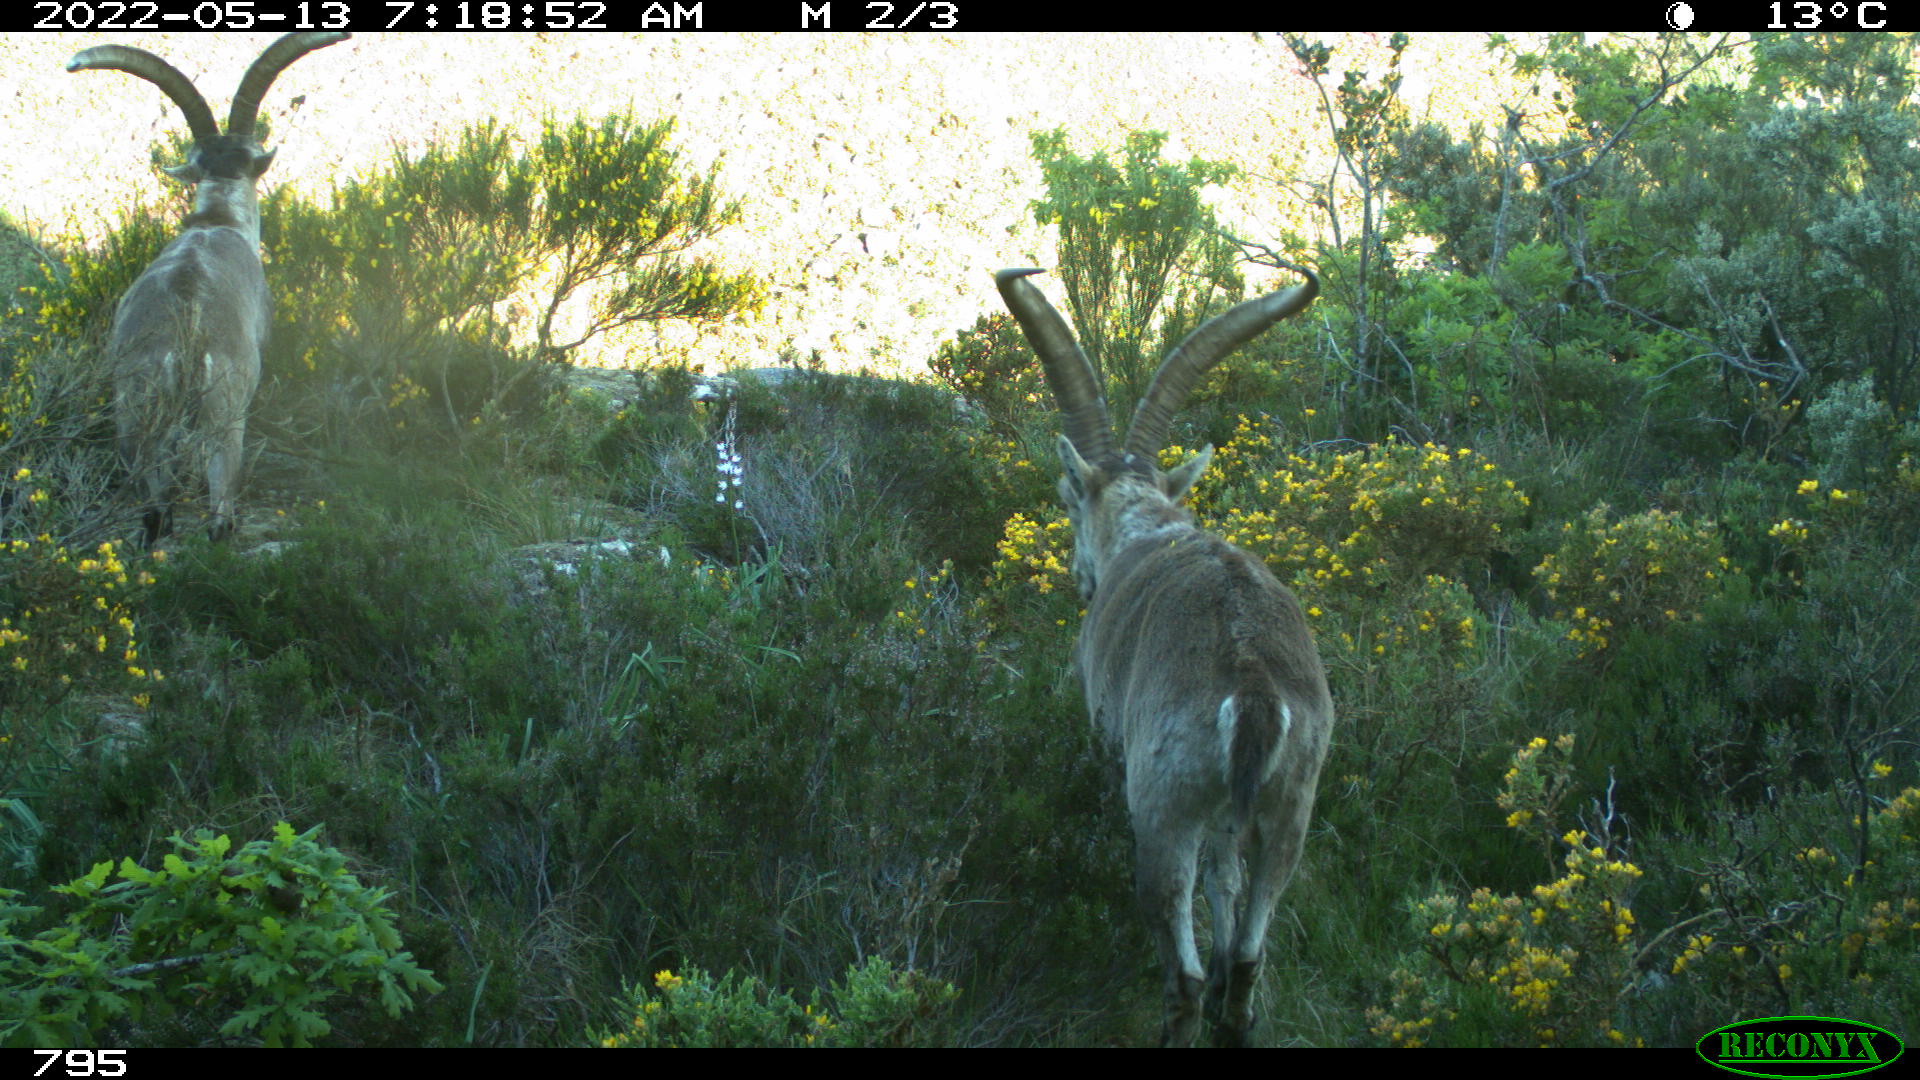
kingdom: Animalia
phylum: Chordata
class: Mammalia
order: Artiodactyla
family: Bovidae
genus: Capra
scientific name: Capra pyrenaica
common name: Spanish ibex
